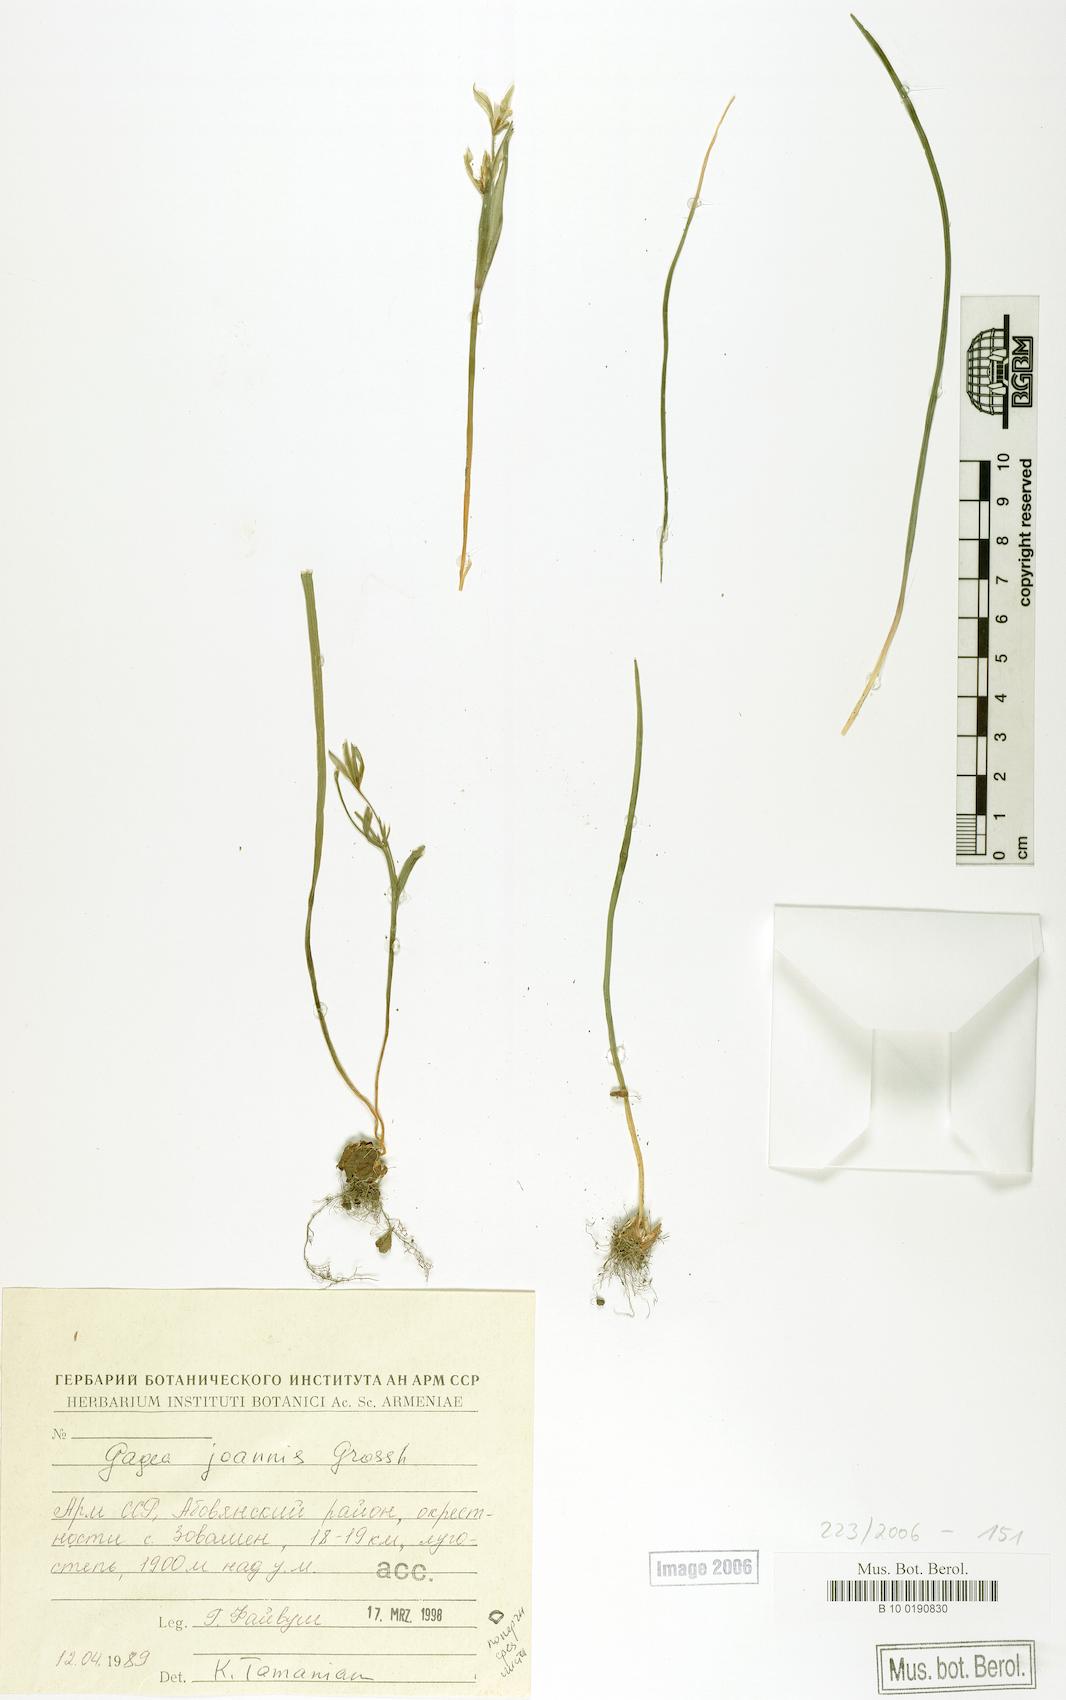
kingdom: Plantae
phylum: Tracheophyta
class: Liliopsida
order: Liliales
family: Liliaceae
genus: Gagea
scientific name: Gagea joannis
